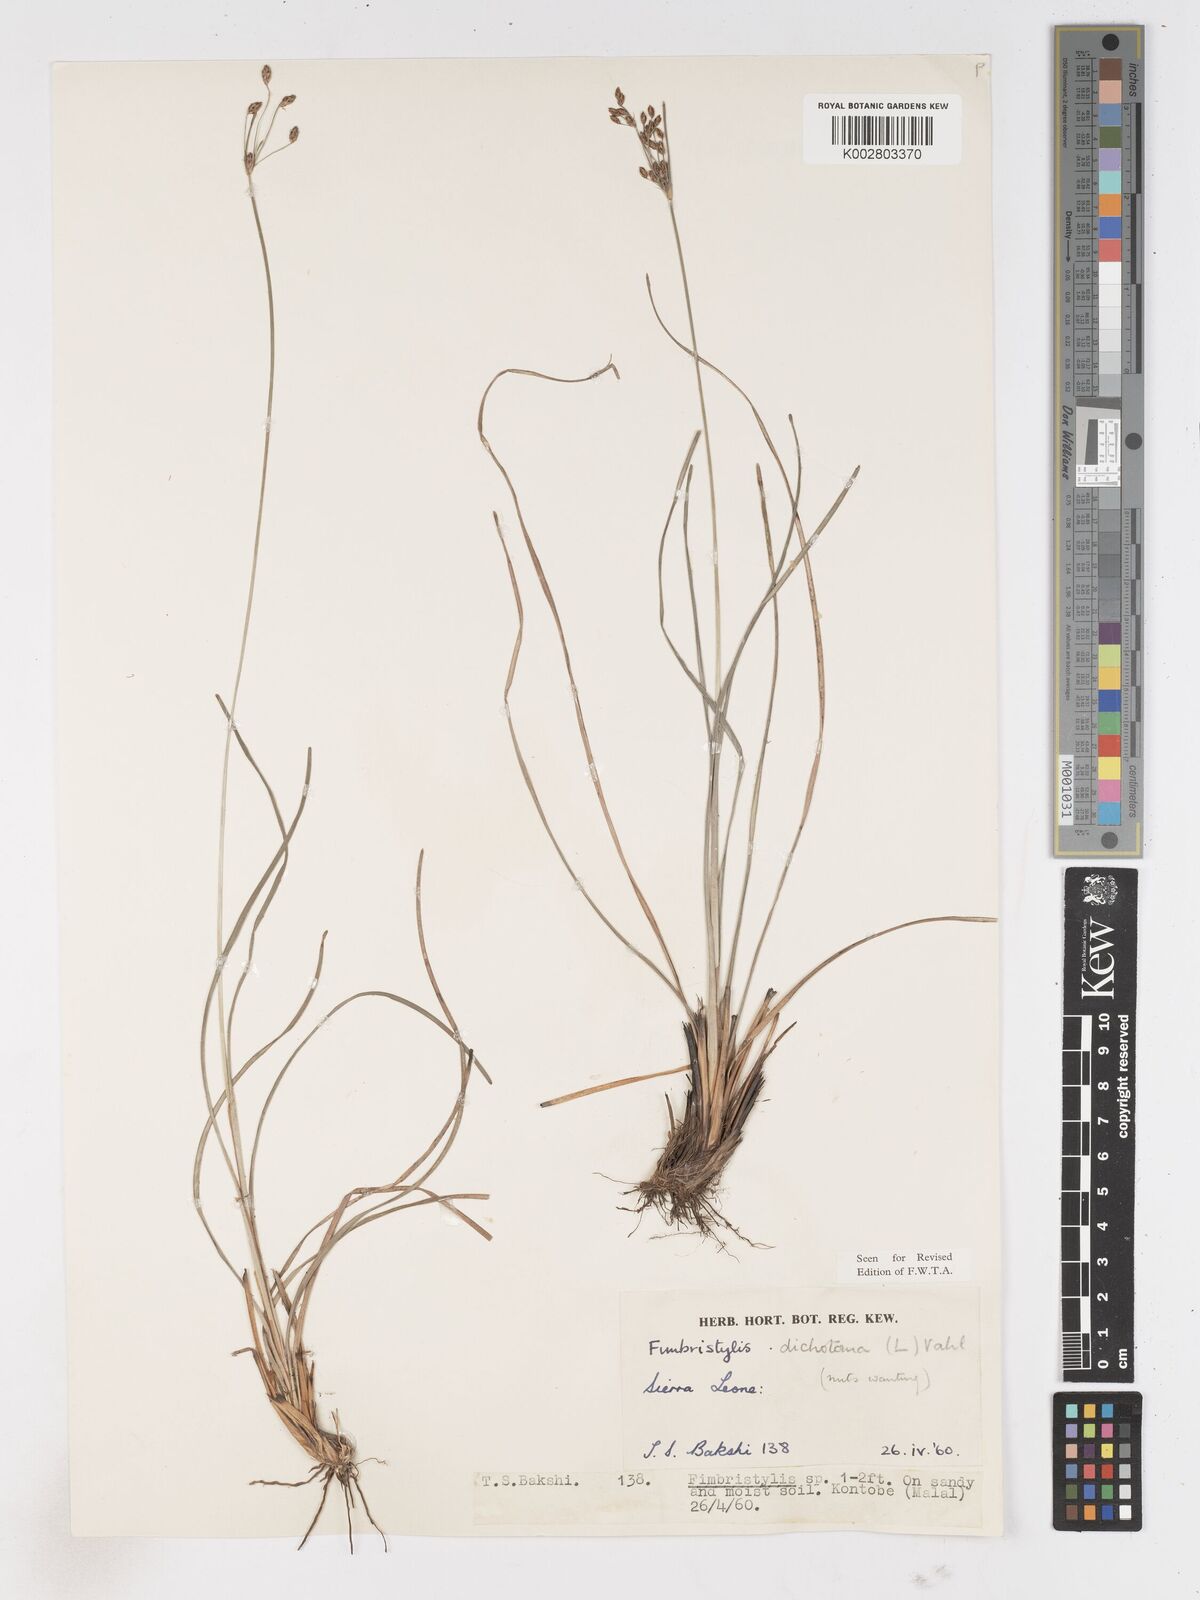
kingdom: Plantae
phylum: Tracheophyta
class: Liliopsida
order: Poales
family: Cyperaceae
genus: Fimbristylis
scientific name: Fimbristylis dichotoma
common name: Forked fimbry
